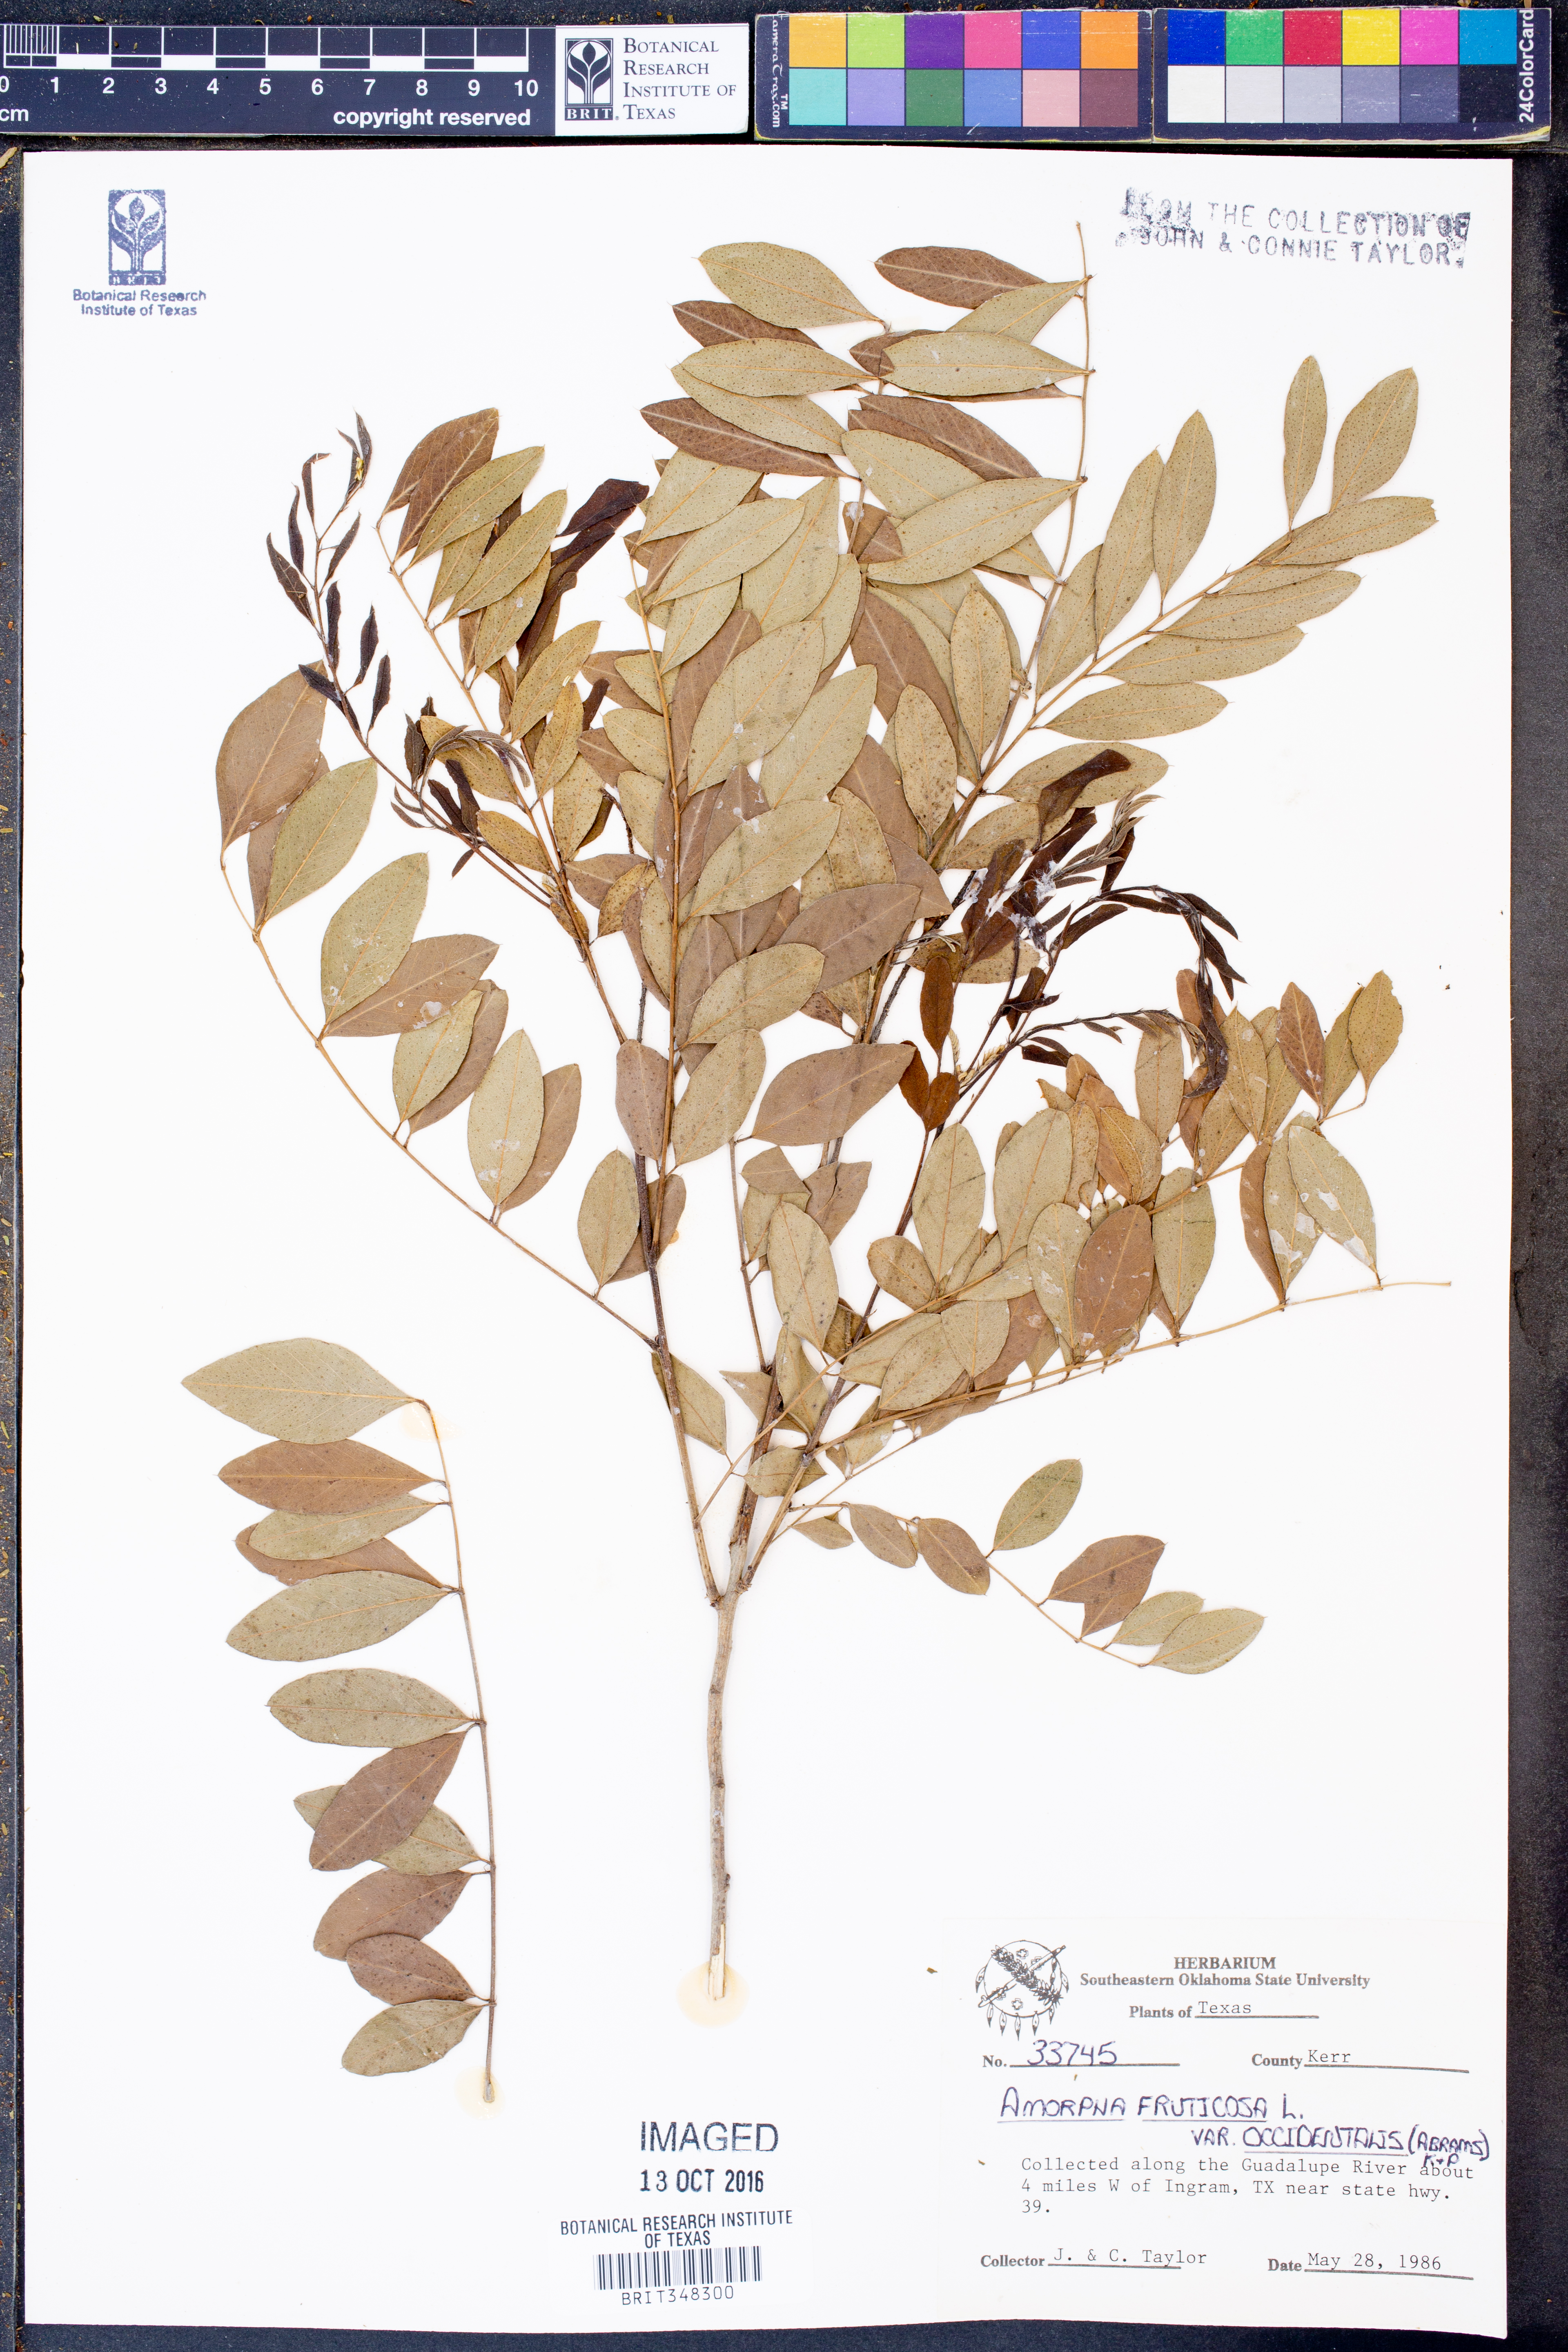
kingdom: Plantae
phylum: Tracheophyta
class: Magnoliopsida
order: Fabales
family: Fabaceae
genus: Amorpha
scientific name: Amorpha fruticosa
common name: False indigo
